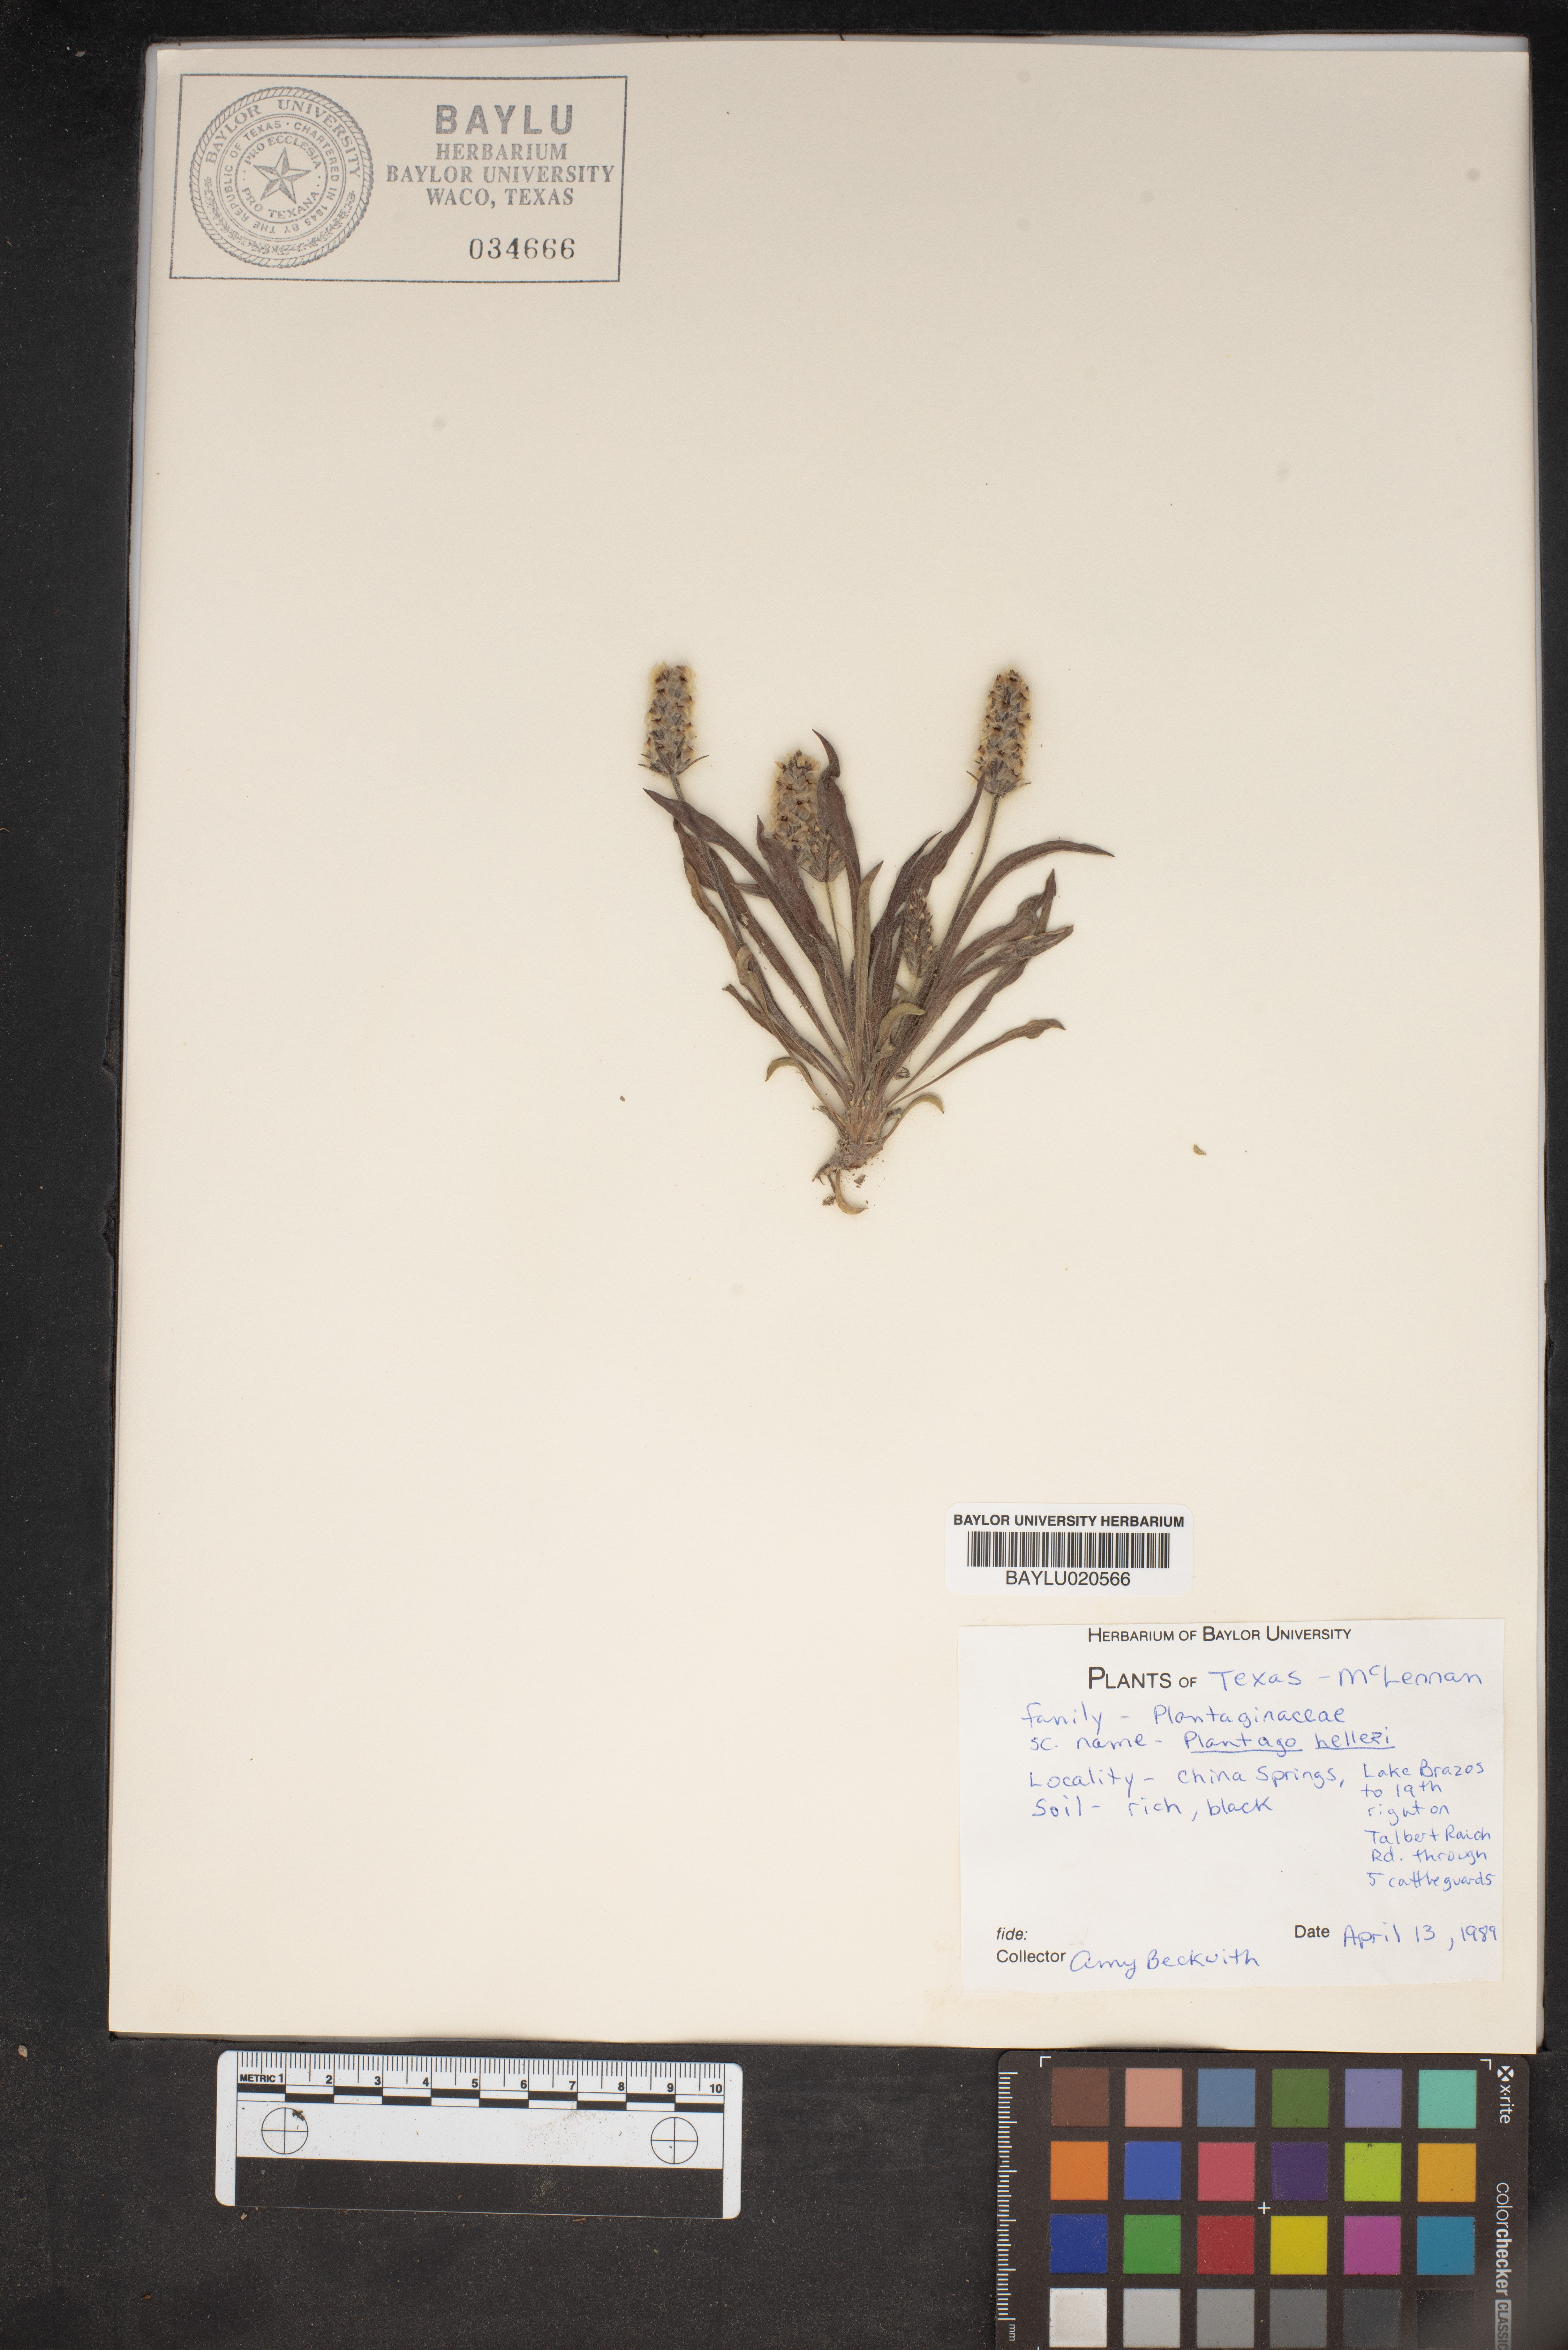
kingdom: Plantae
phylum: Tracheophyta
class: Magnoliopsida
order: Lamiales
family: Plantaginaceae
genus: Plantago
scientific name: Plantago helleri
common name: Heller's plantain
